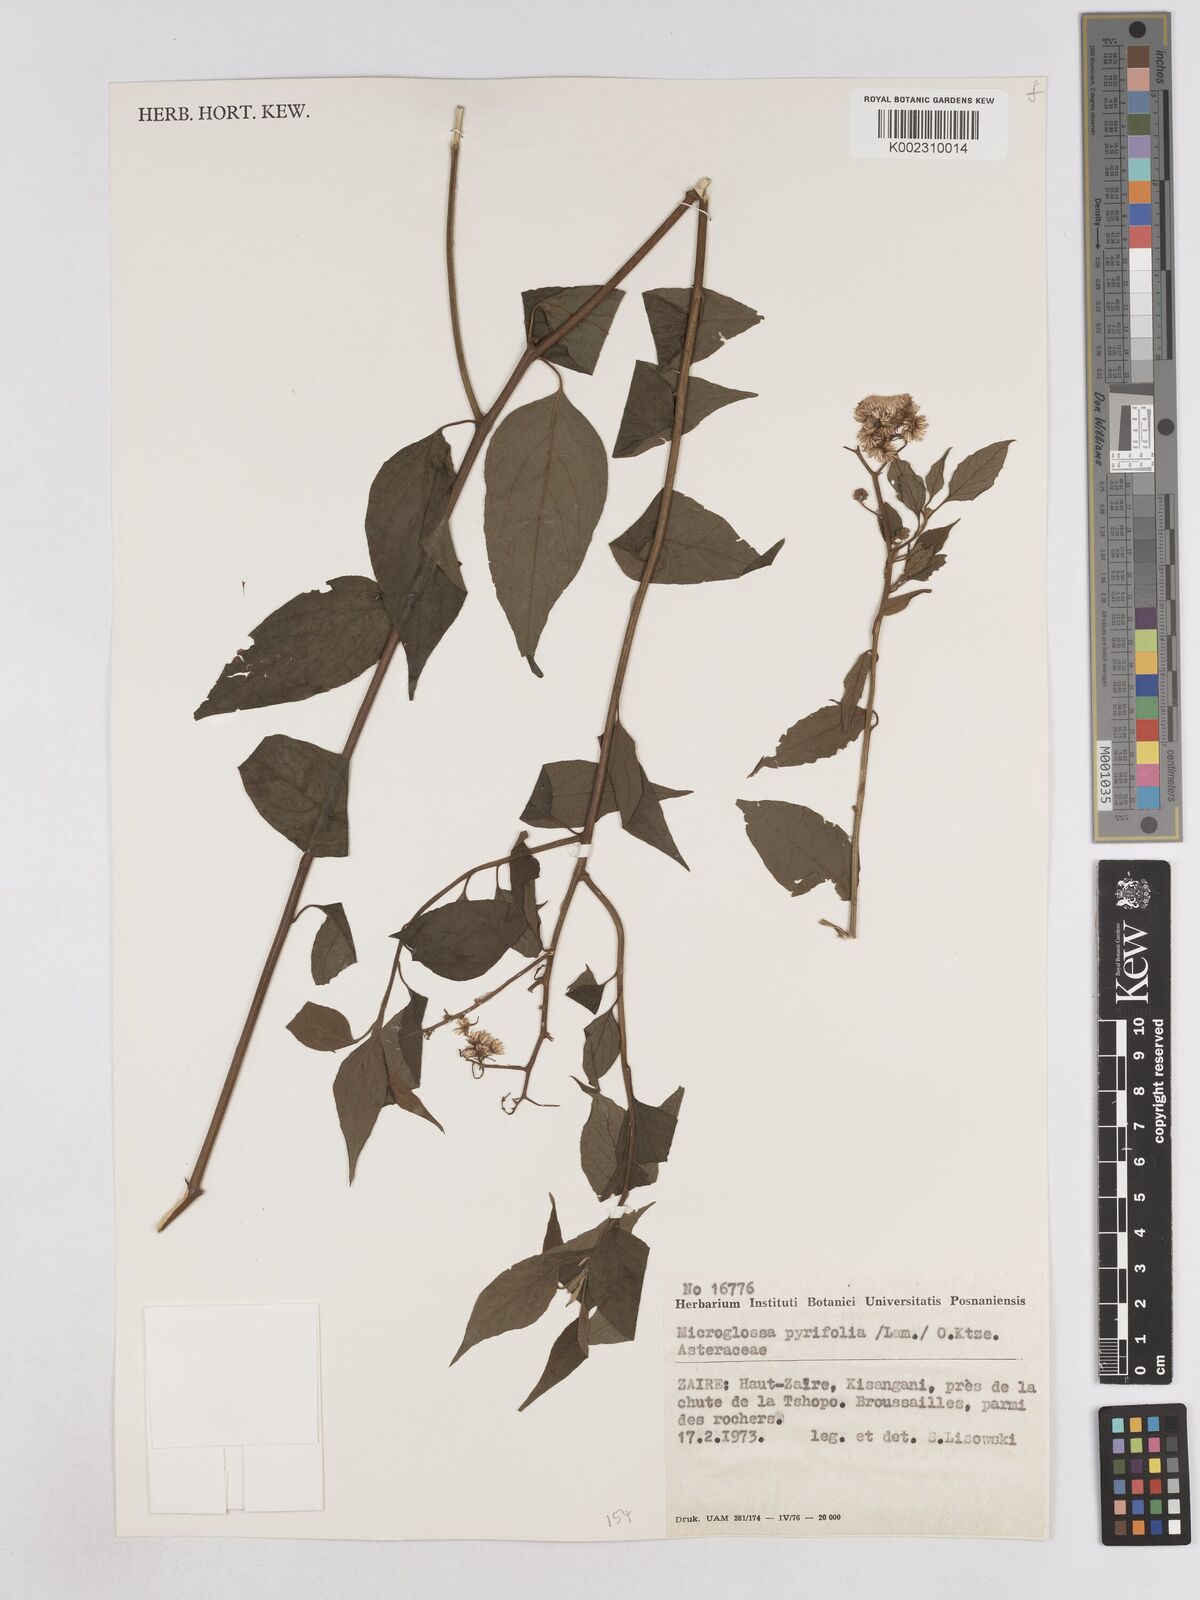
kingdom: Plantae
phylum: Tracheophyta
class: Magnoliopsida
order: Asterales
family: Asteraceae
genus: Microglossa
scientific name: Microglossa pyrifolia
